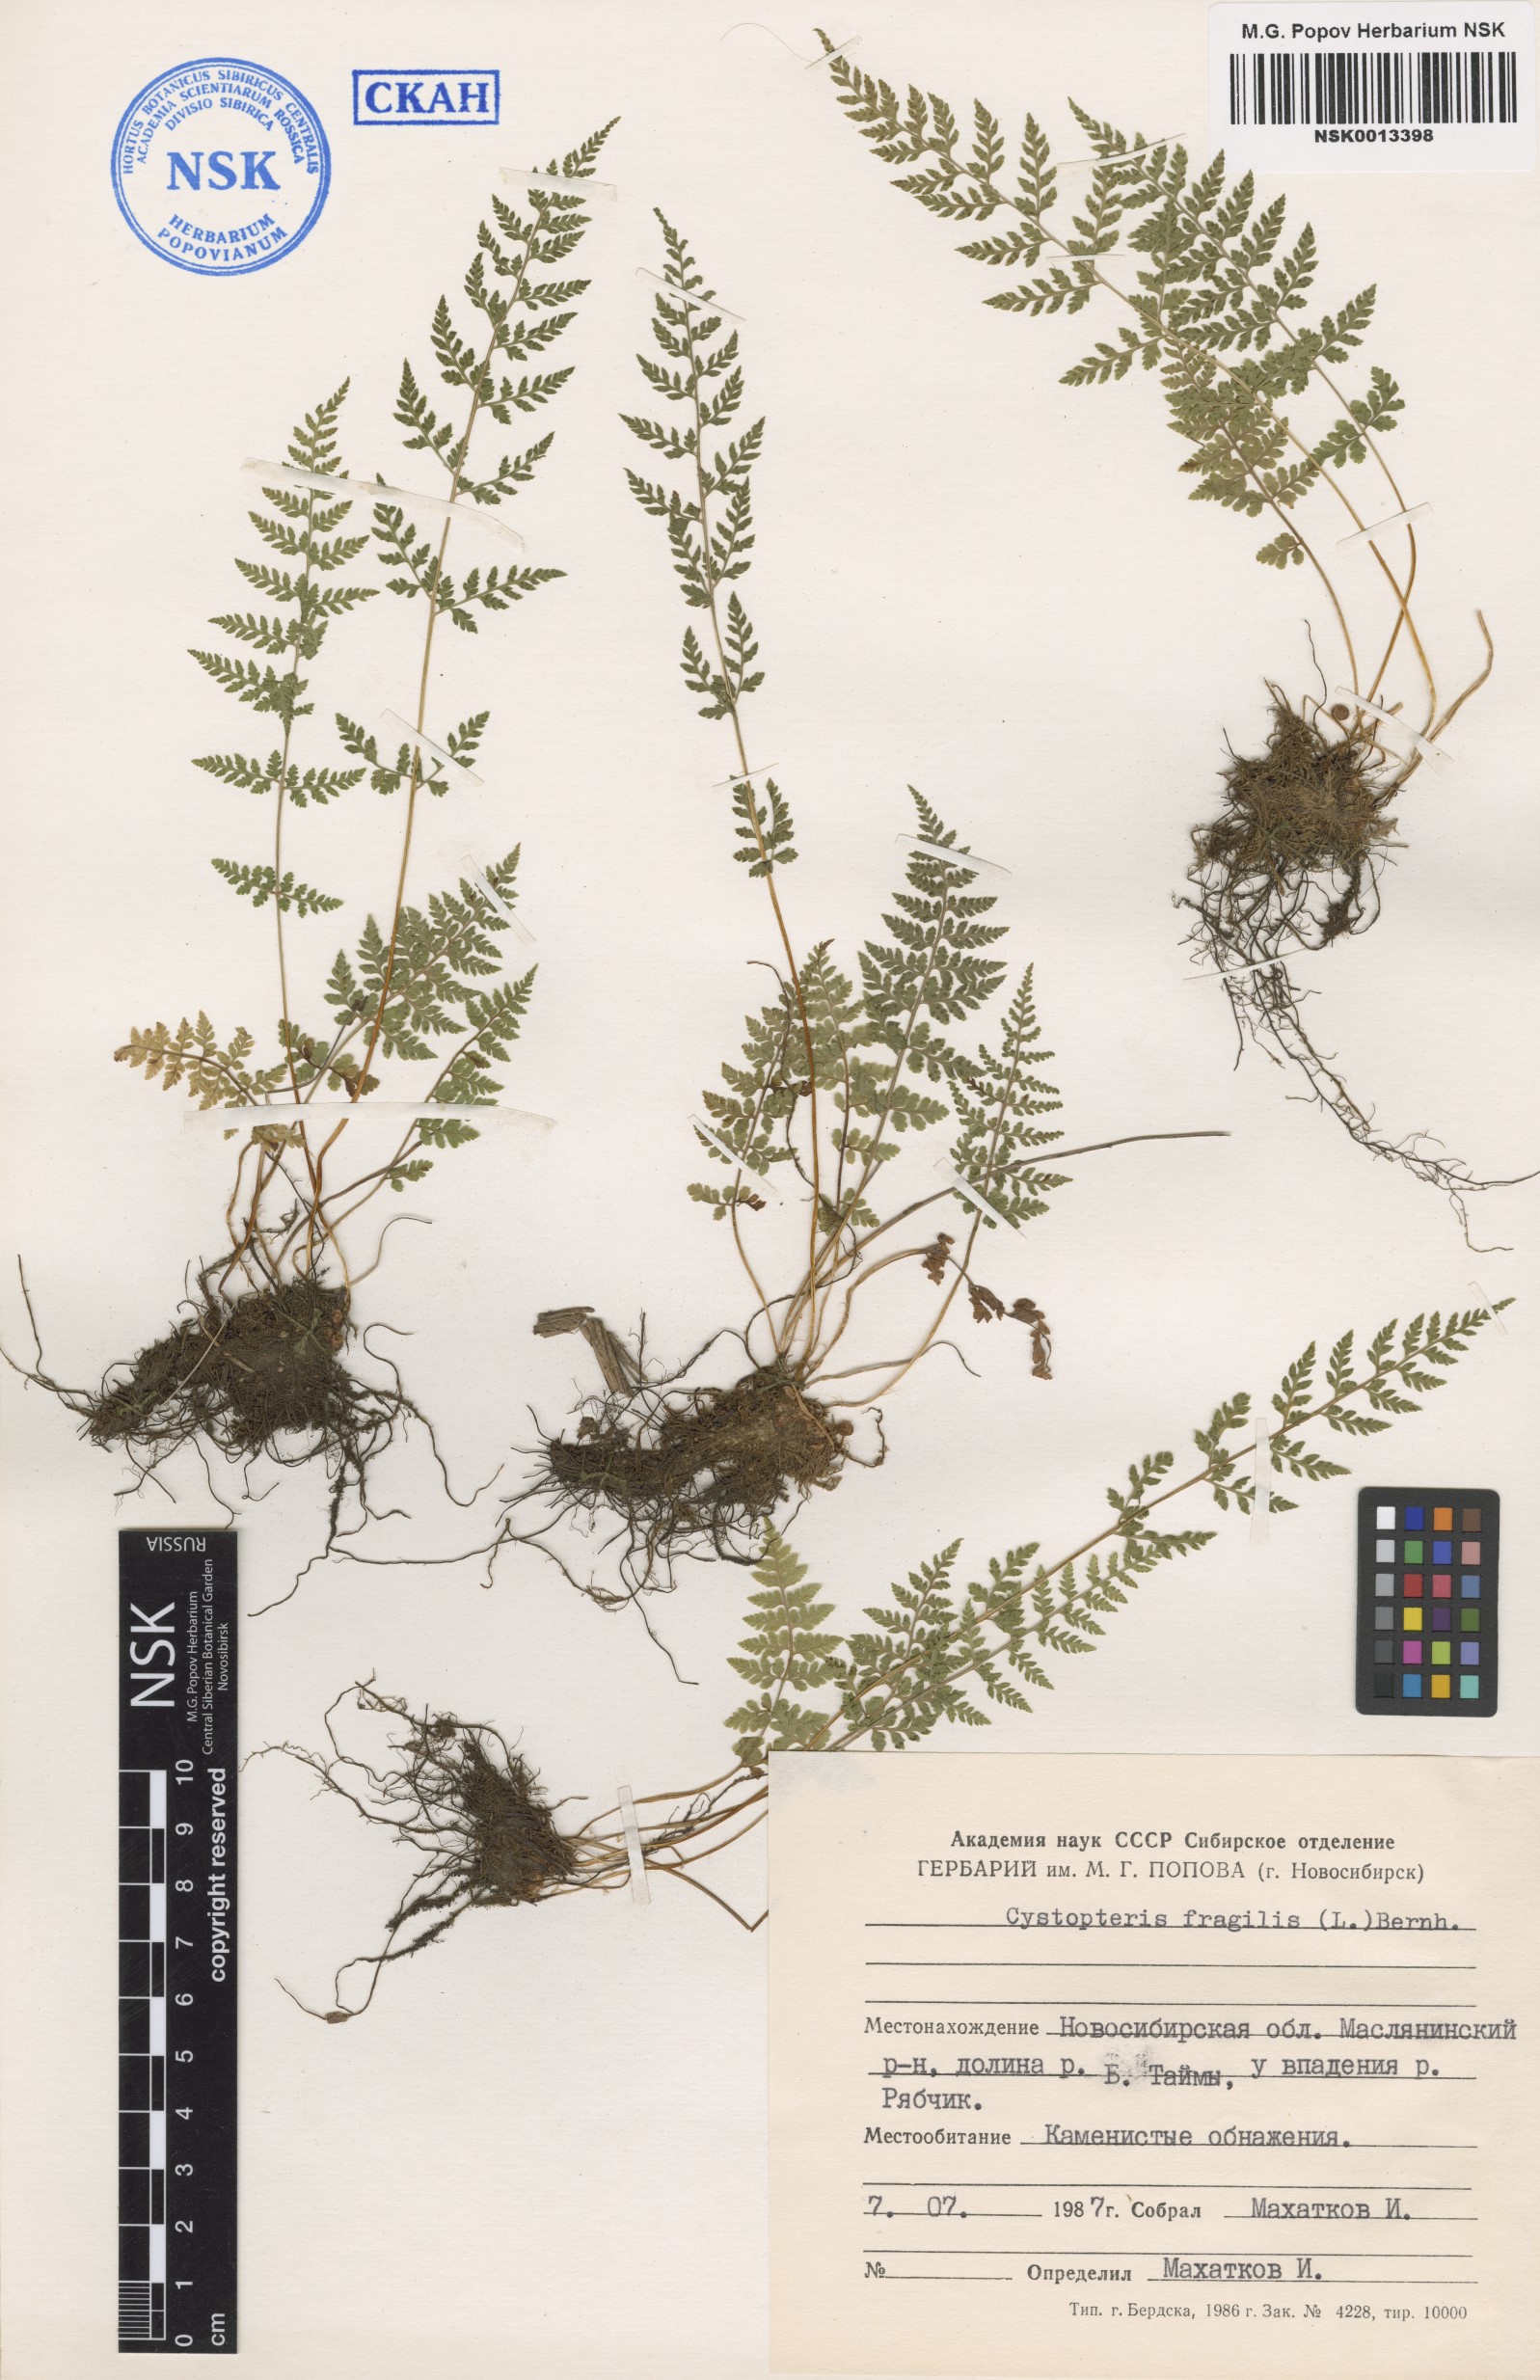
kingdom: Plantae
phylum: Tracheophyta
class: Polypodiopsida
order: Polypodiales
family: Cystopteridaceae
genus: Cystopteris
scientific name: Cystopteris fragilis
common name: Brittle bladder fern
